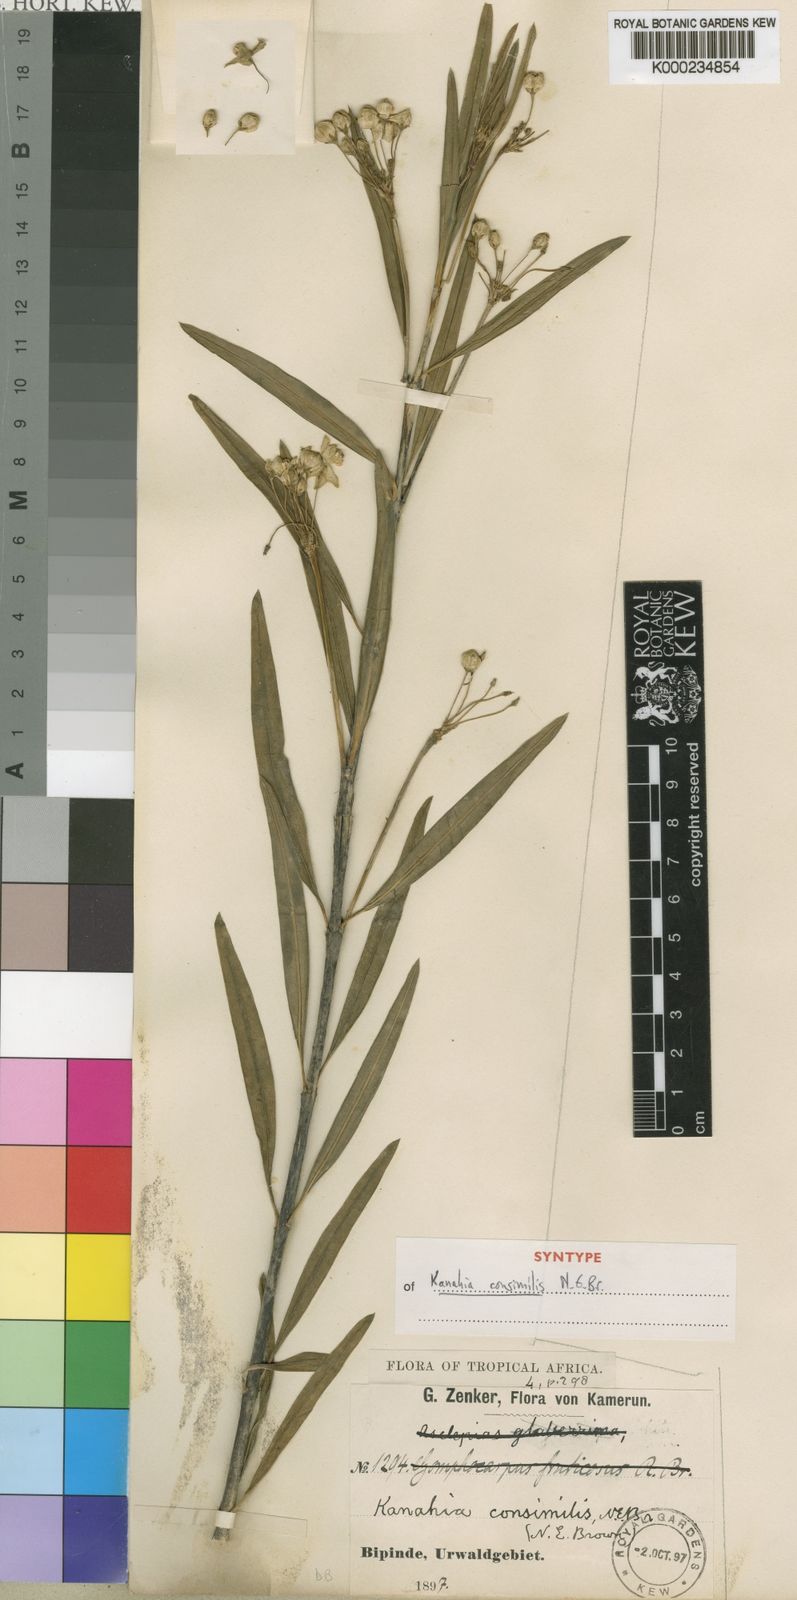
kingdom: Plantae
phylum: Tracheophyta
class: Magnoliopsida
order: Gentianales
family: Apocynaceae
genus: Kanahia
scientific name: Kanahia laniflora
